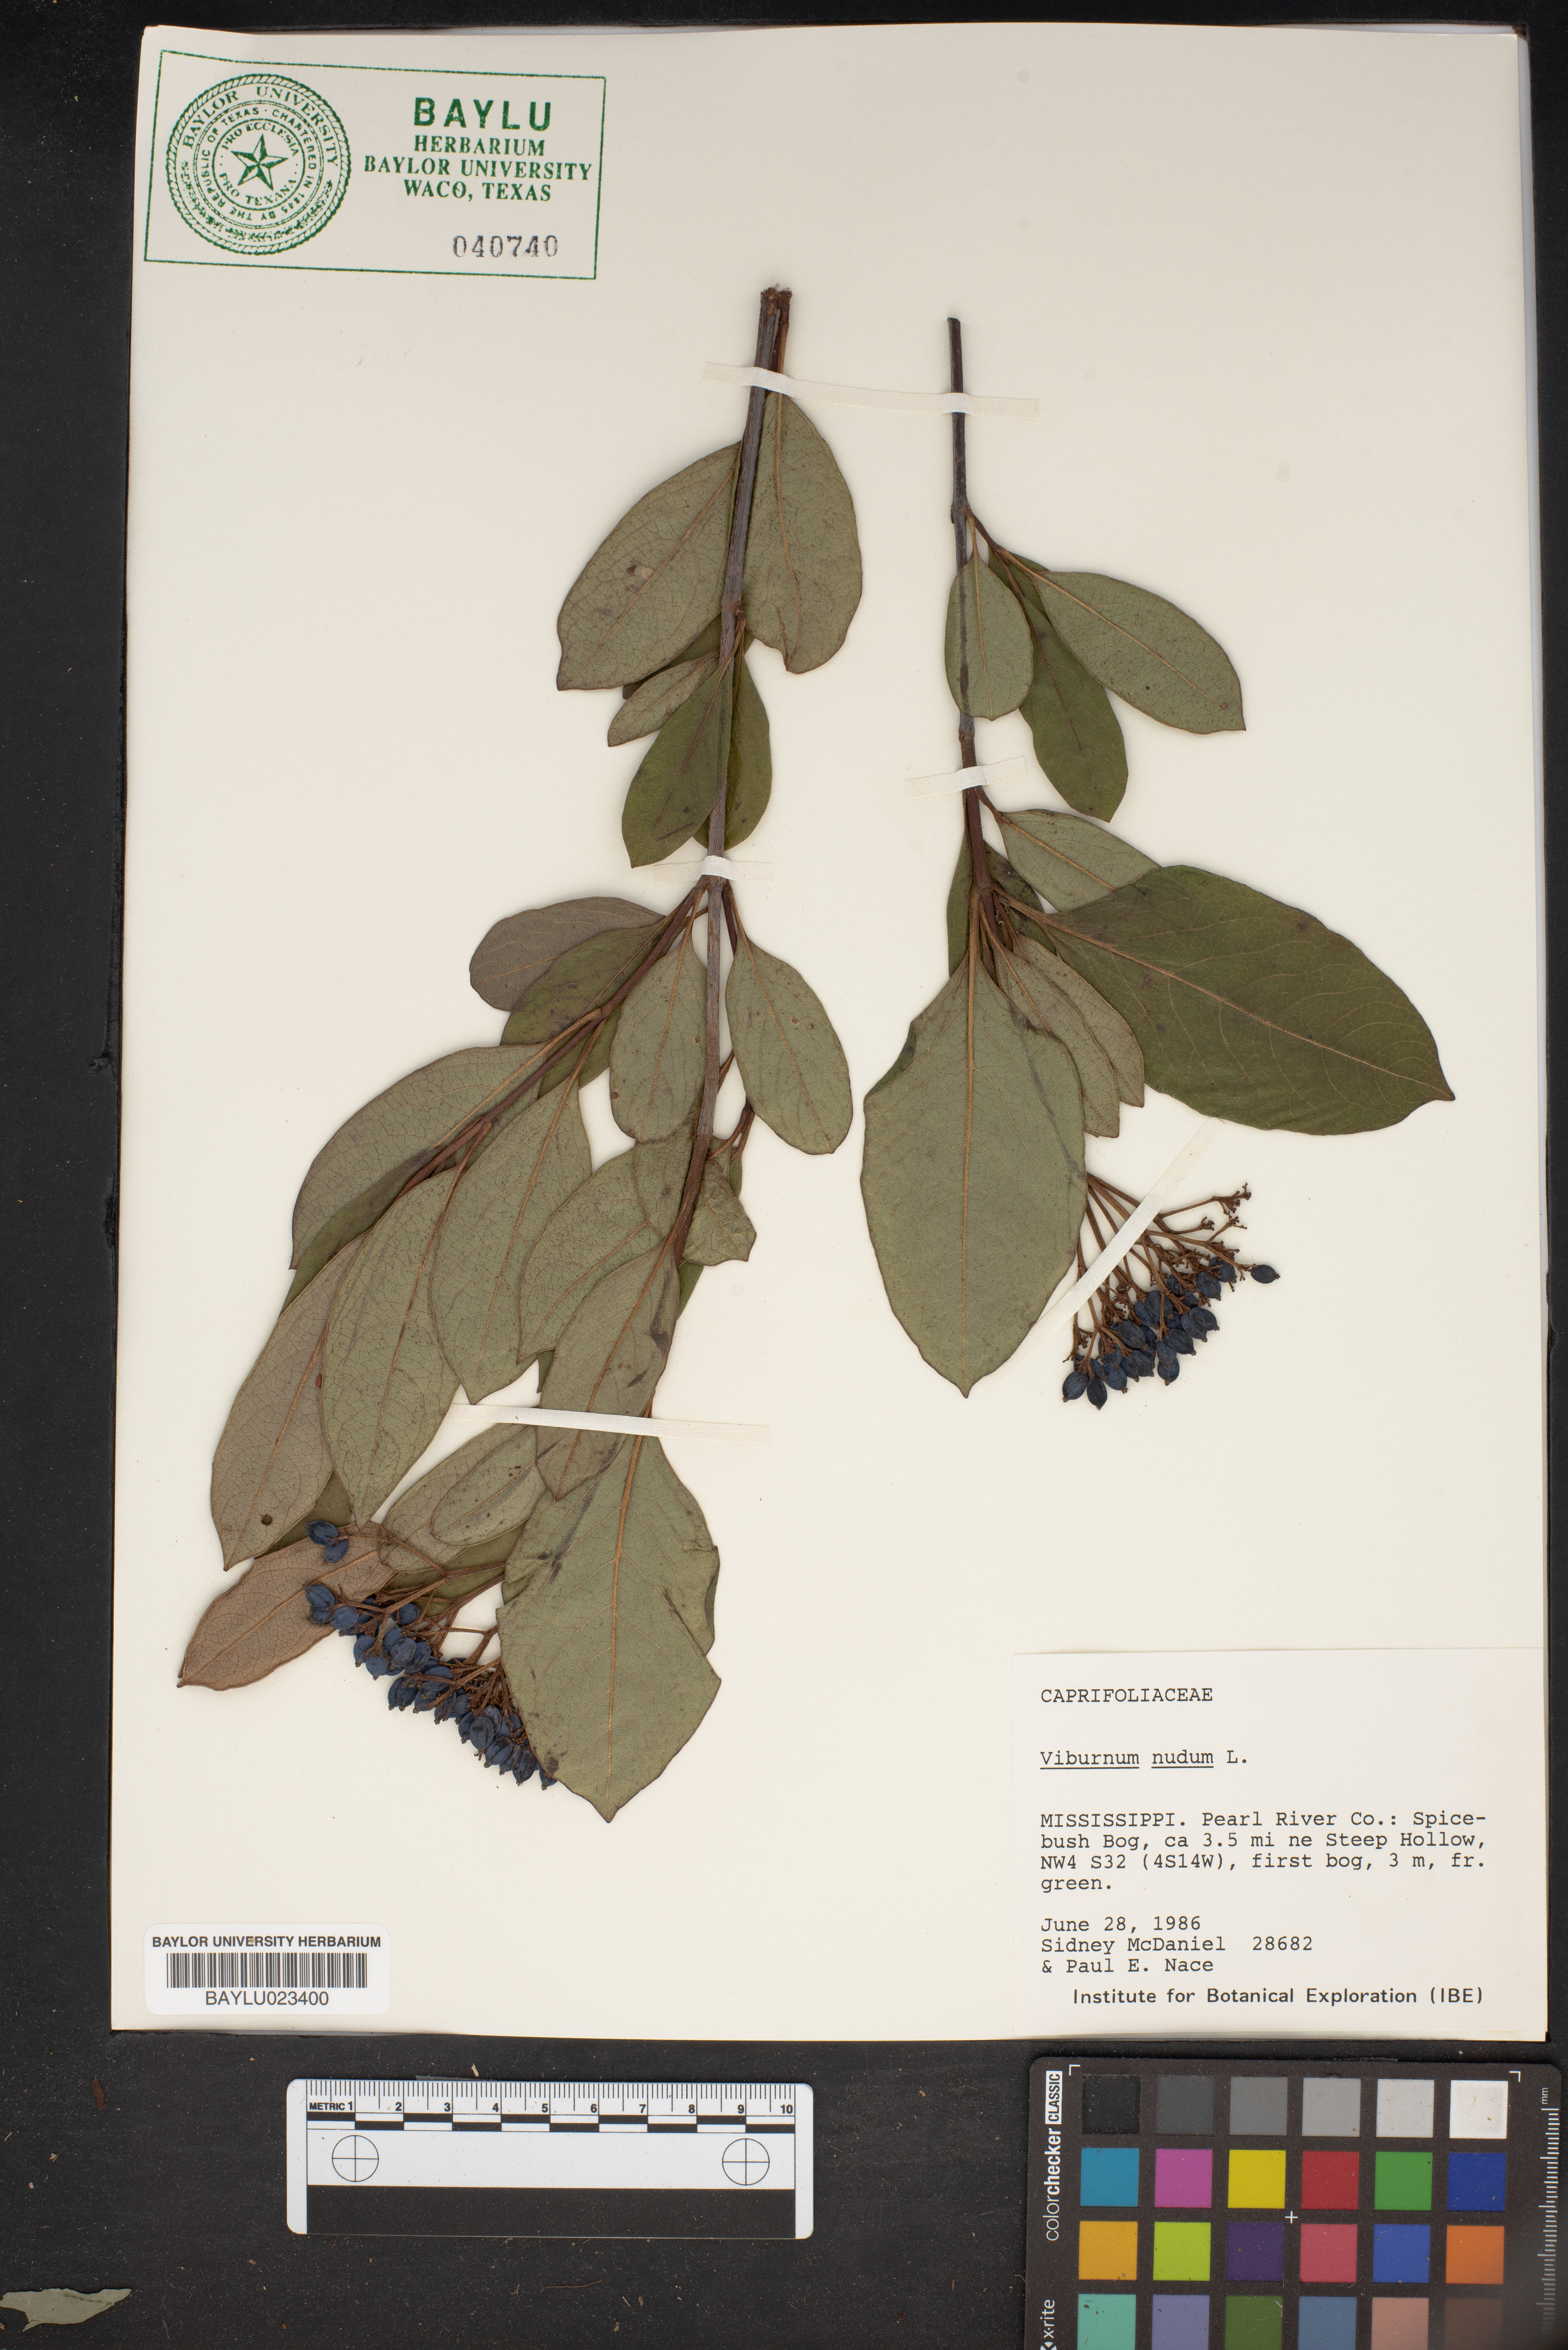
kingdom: Plantae
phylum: Tracheophyta
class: Magnoliopsida
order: Dipsacales
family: Viburnaceae
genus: Viburnum
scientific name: Viburnum nudum
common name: Possum haw
